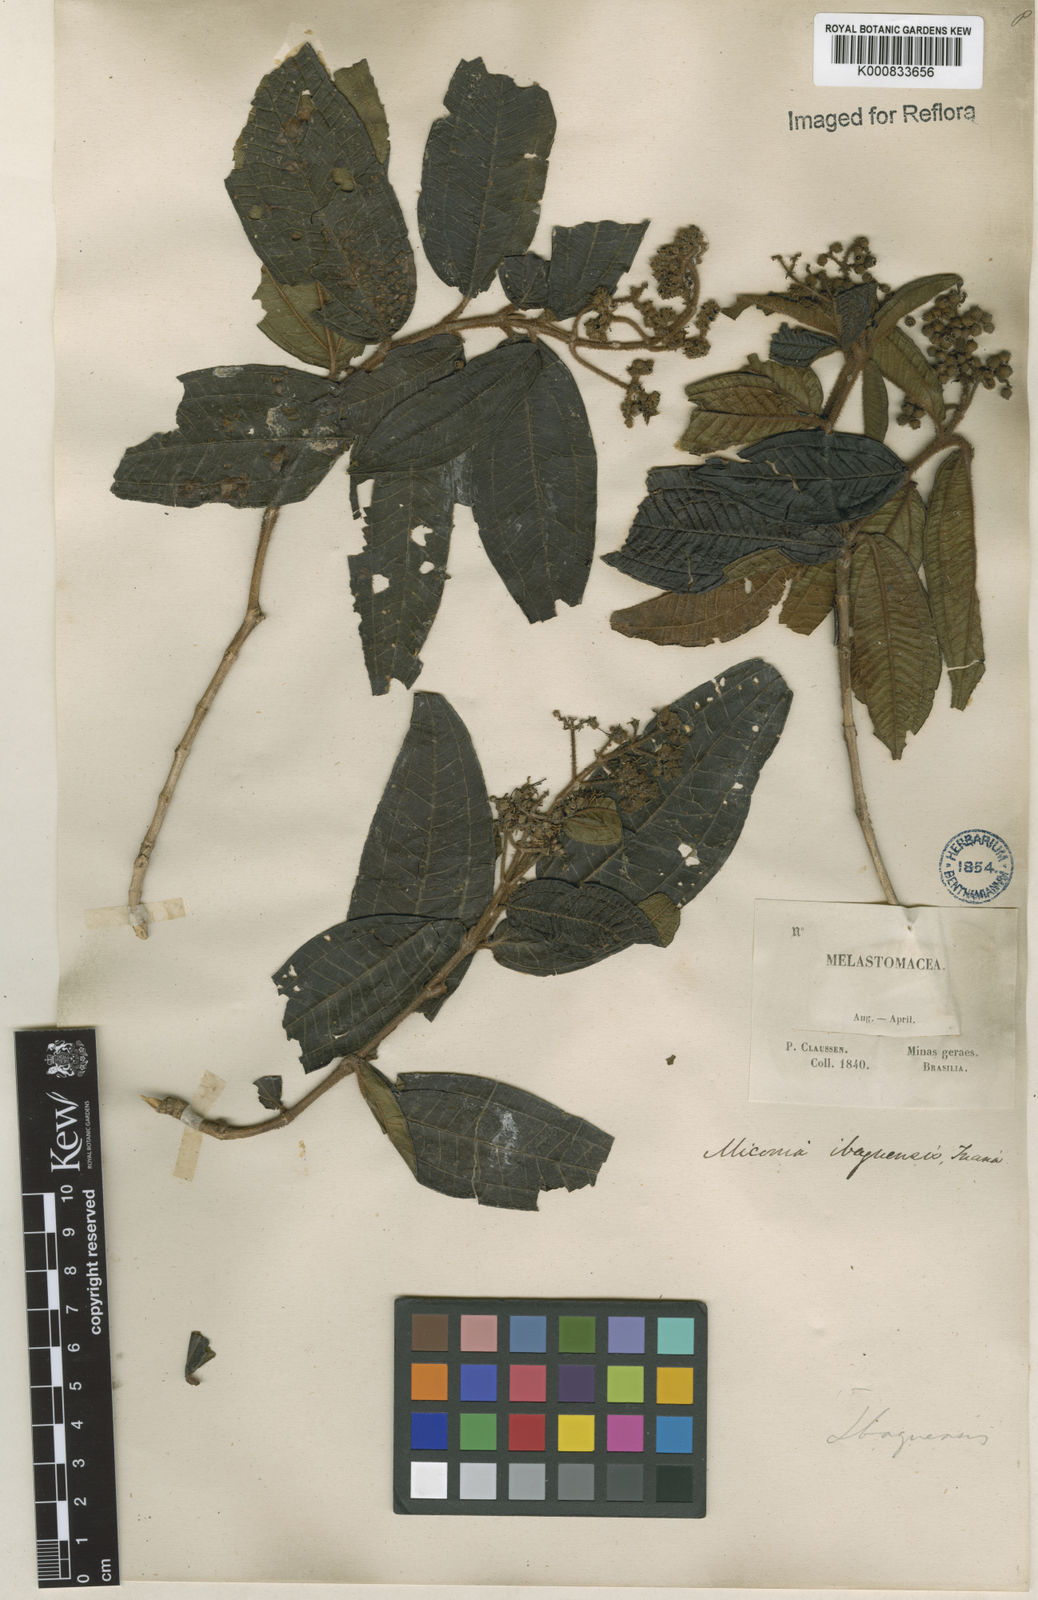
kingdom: Plantae
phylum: Tracheophyta
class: Magnoliopsida
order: Myrtales
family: Melastomataceae
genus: Miconia
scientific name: Miconia ibaguensis
